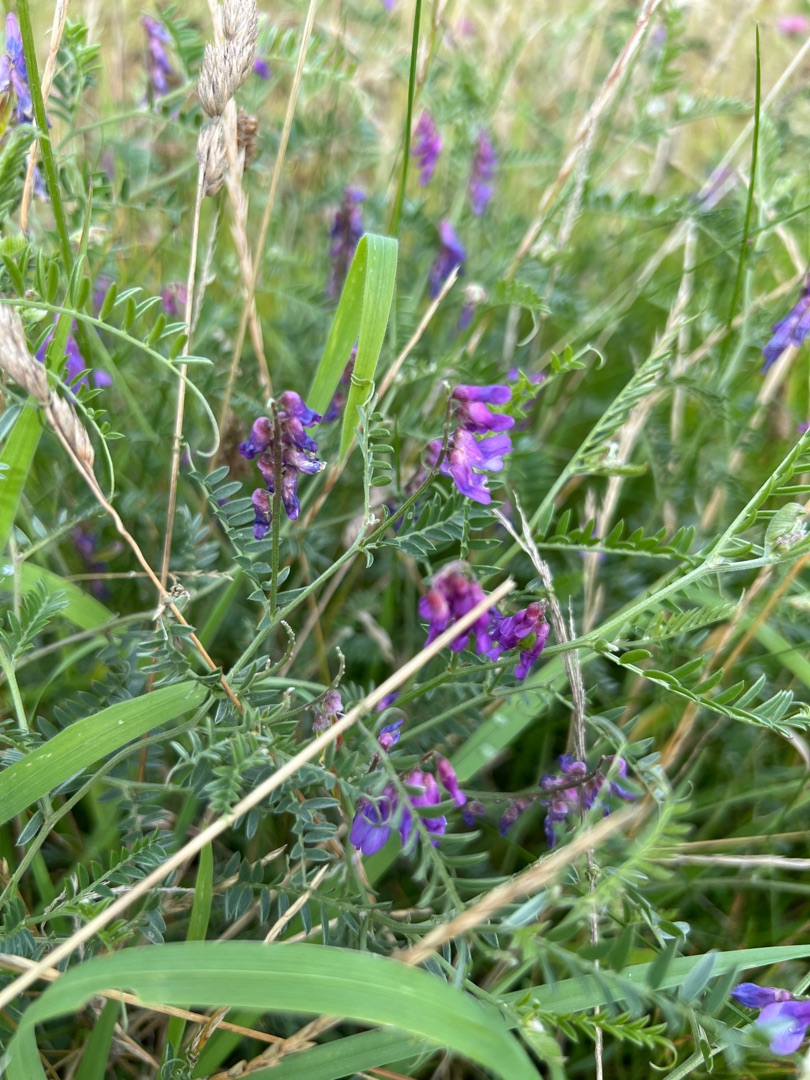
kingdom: Plantae
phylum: Tracheophyta
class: Magnoliopsida
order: Fabales
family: Fabaceae
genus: Vicia
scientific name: Vicia cracca
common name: Muse-vikke
